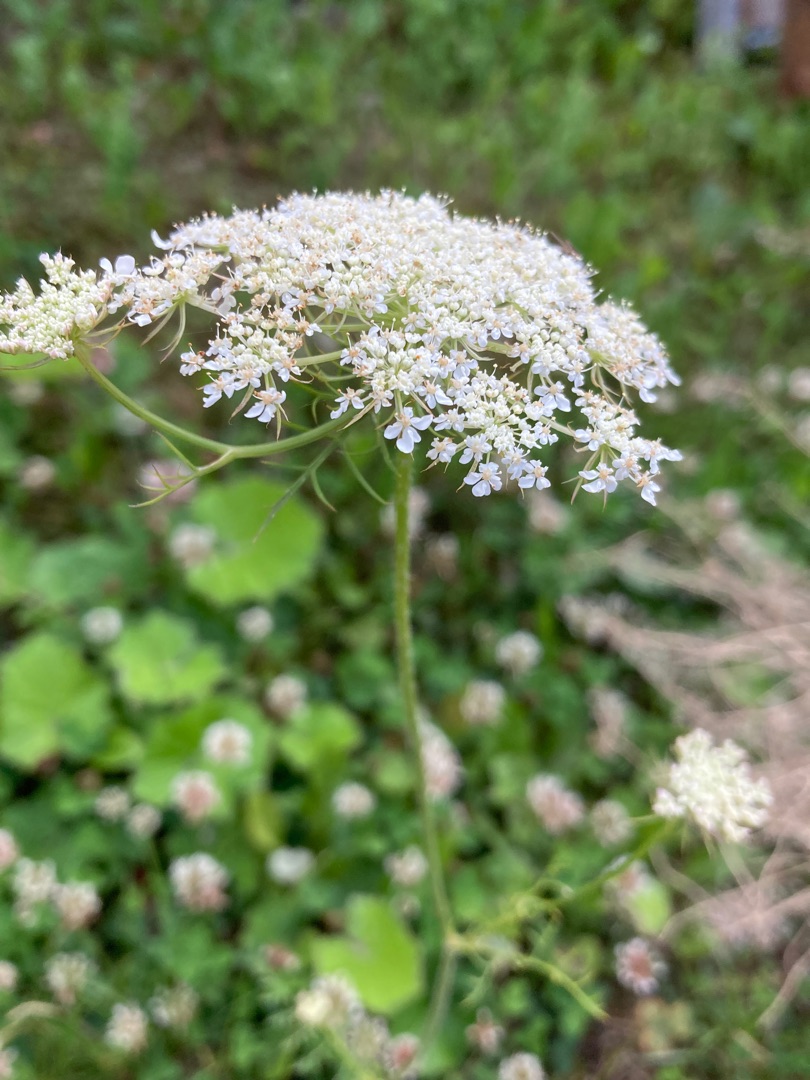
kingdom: Plantae
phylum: Tracheophyta
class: Magnoliopsida
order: Apiales
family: Apiaceae
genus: Daucus
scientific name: Daucus
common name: Gulerodslægten
